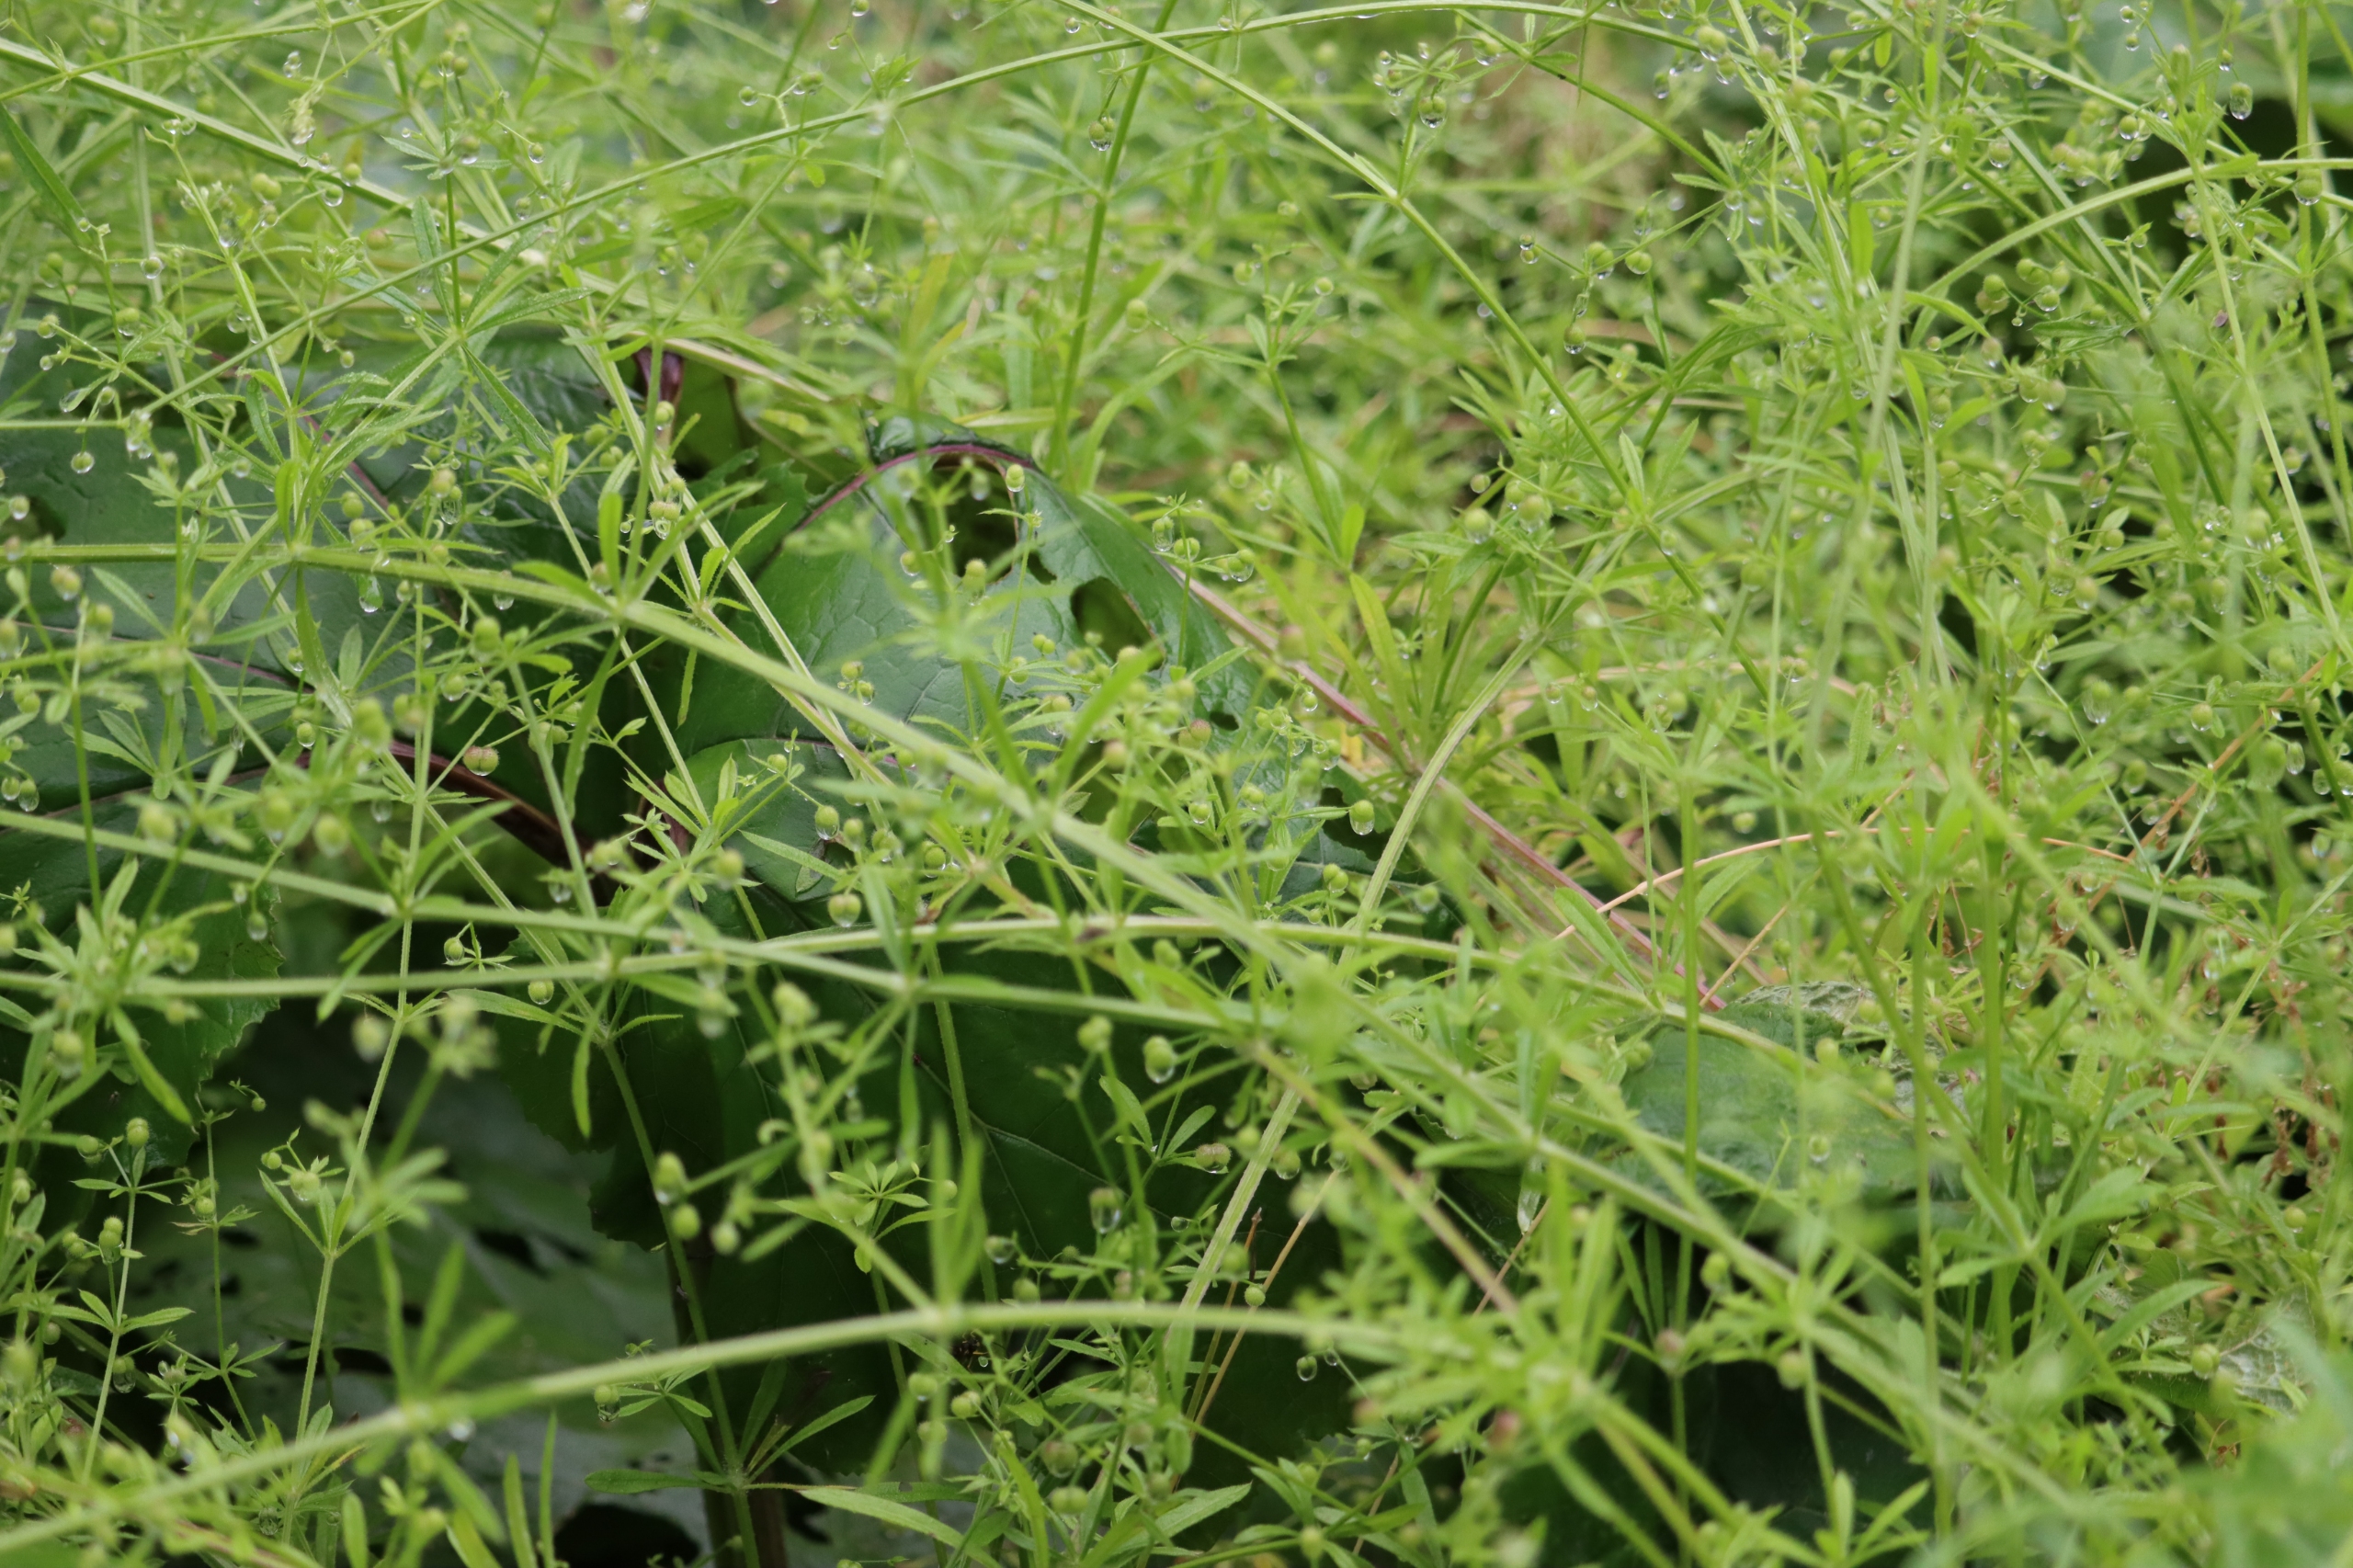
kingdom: Plantae
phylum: Tracheophyta
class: Magnoliopsida
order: Gentianales
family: Rubiaceae
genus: Galium
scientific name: Galium aparine
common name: Burre-snerre
